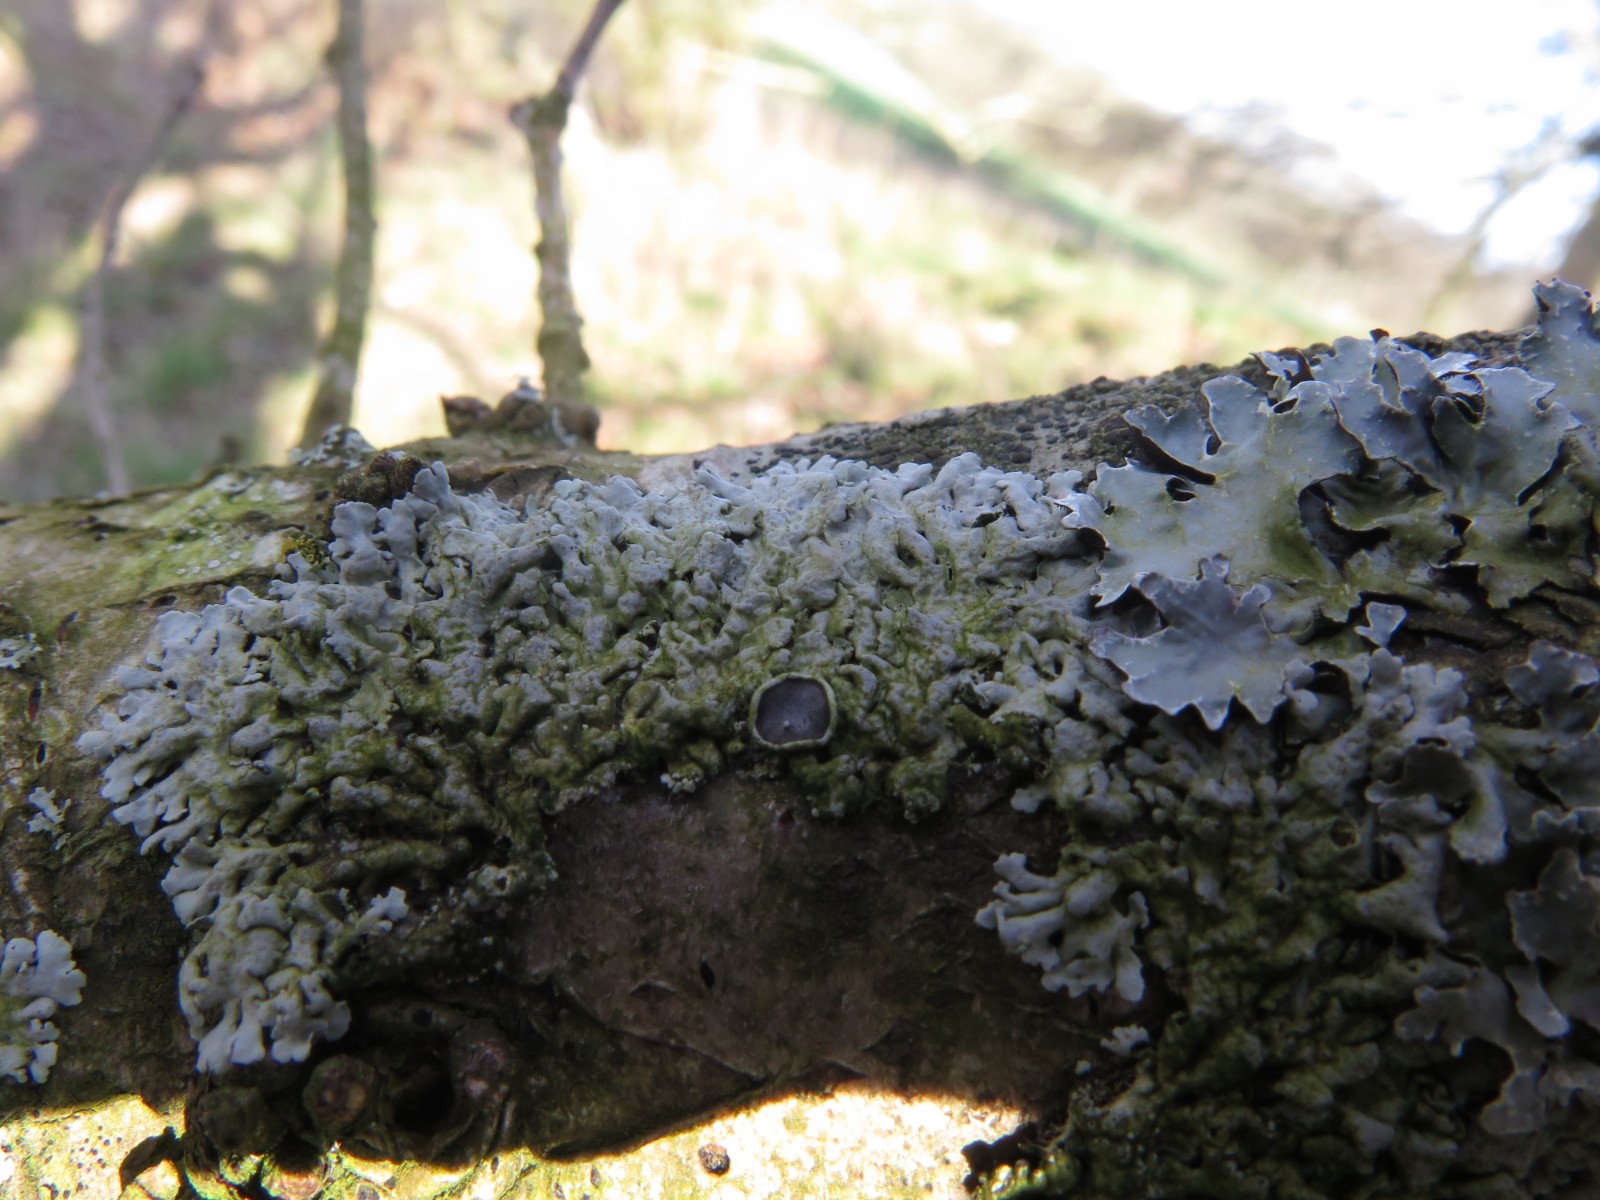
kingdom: Fungi
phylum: Ascomycota
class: Lecanoromycetes
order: Caliciales
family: Physciaceae
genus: Phaeophyscia
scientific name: Phaeophyscia orbicularis
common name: grågrøn rosetlav
